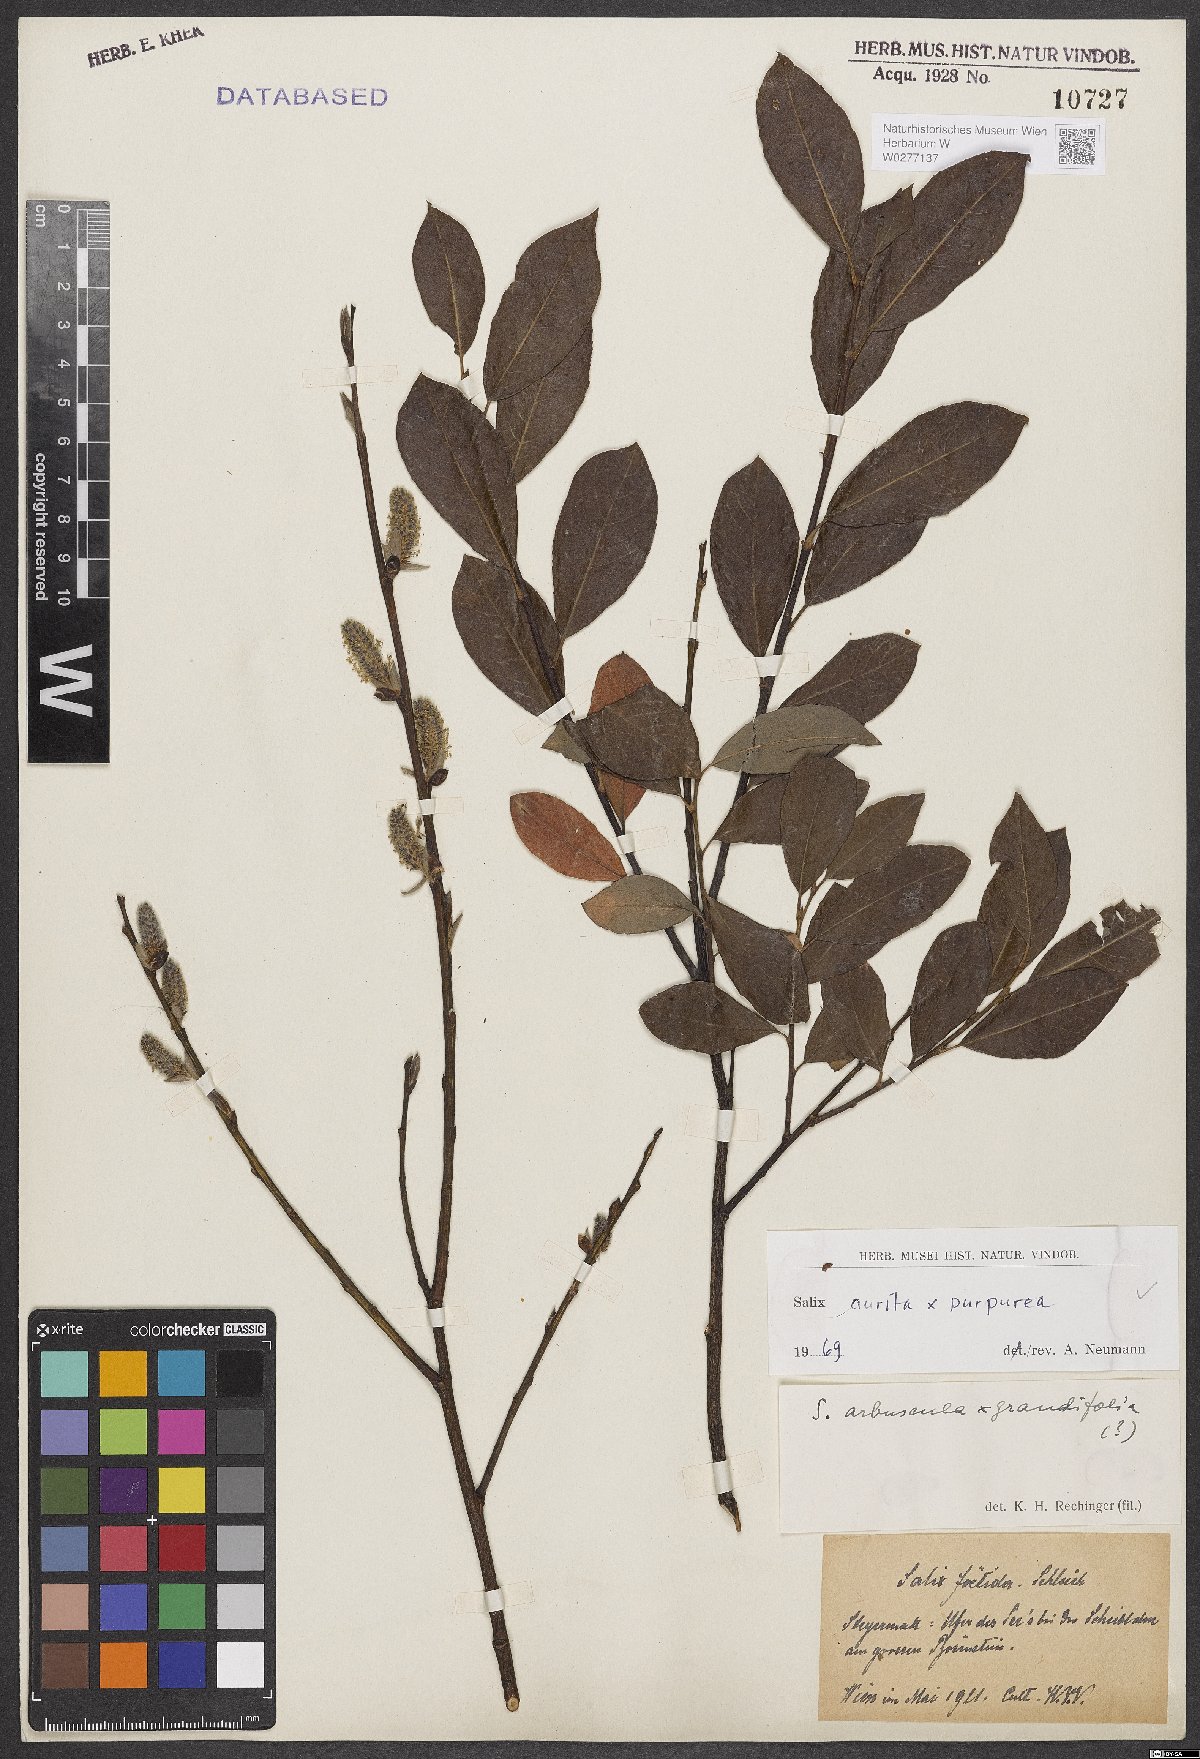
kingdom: Plantae
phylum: Tracheophyta
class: Magnoliopsida
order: Malpighiales
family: Salicaceae
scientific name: Salicaceae
